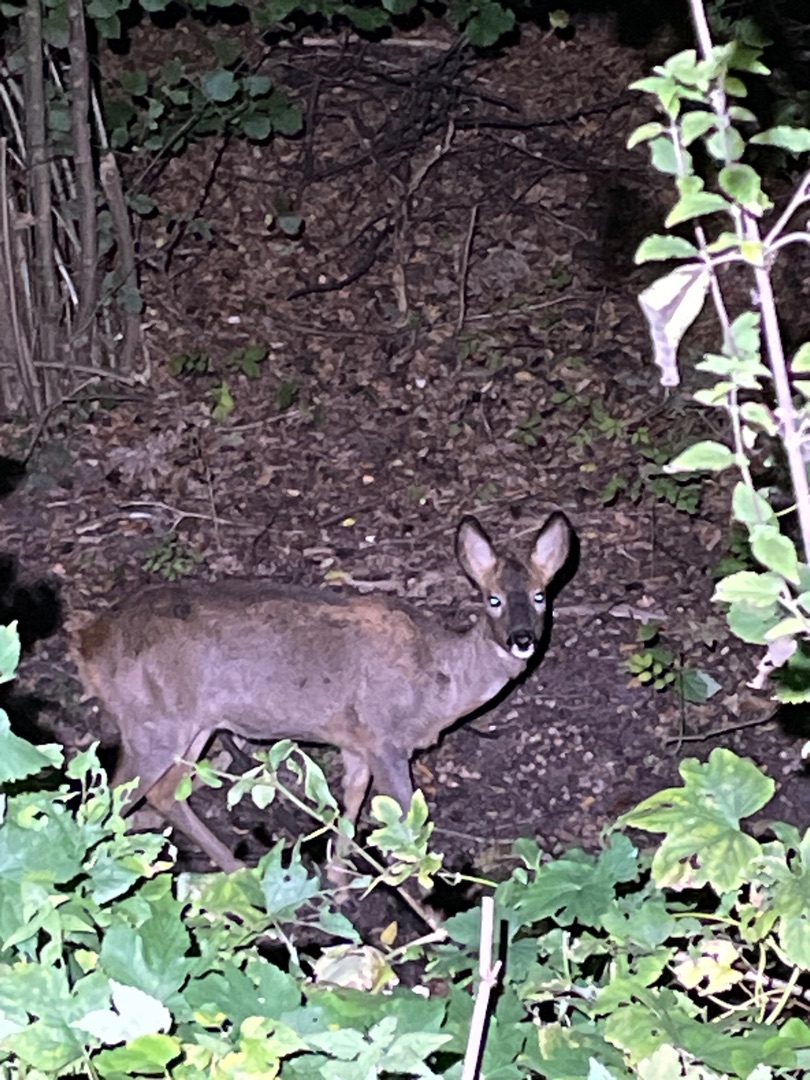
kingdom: Animalia
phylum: Chordata
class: Mammalia
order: Artiodactyla
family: Cervidae
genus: Capreolus
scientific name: Capreolus capreolus
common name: Rådyr
